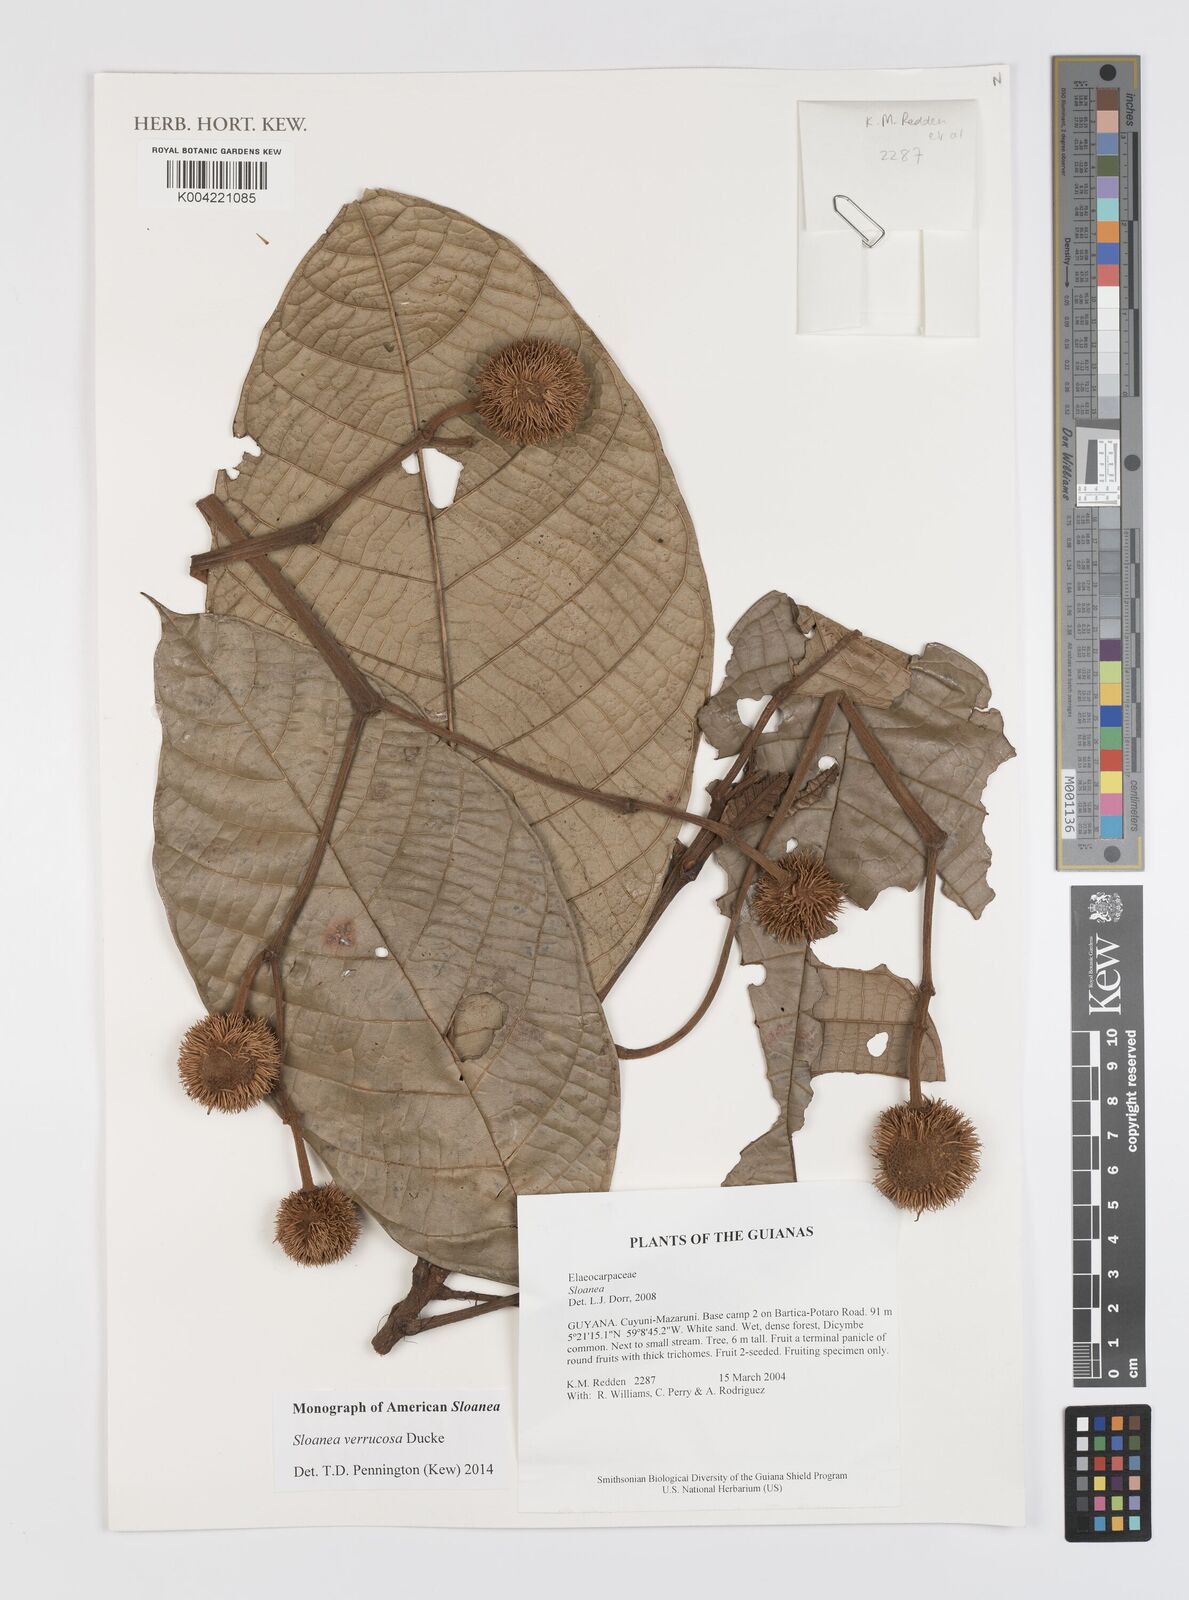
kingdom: Plantae
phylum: Tracheophyta
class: Magnoliopsida
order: Oxalidales
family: Elaeocarpaceae
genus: Sloanea
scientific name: Sloanea schomburgkii
